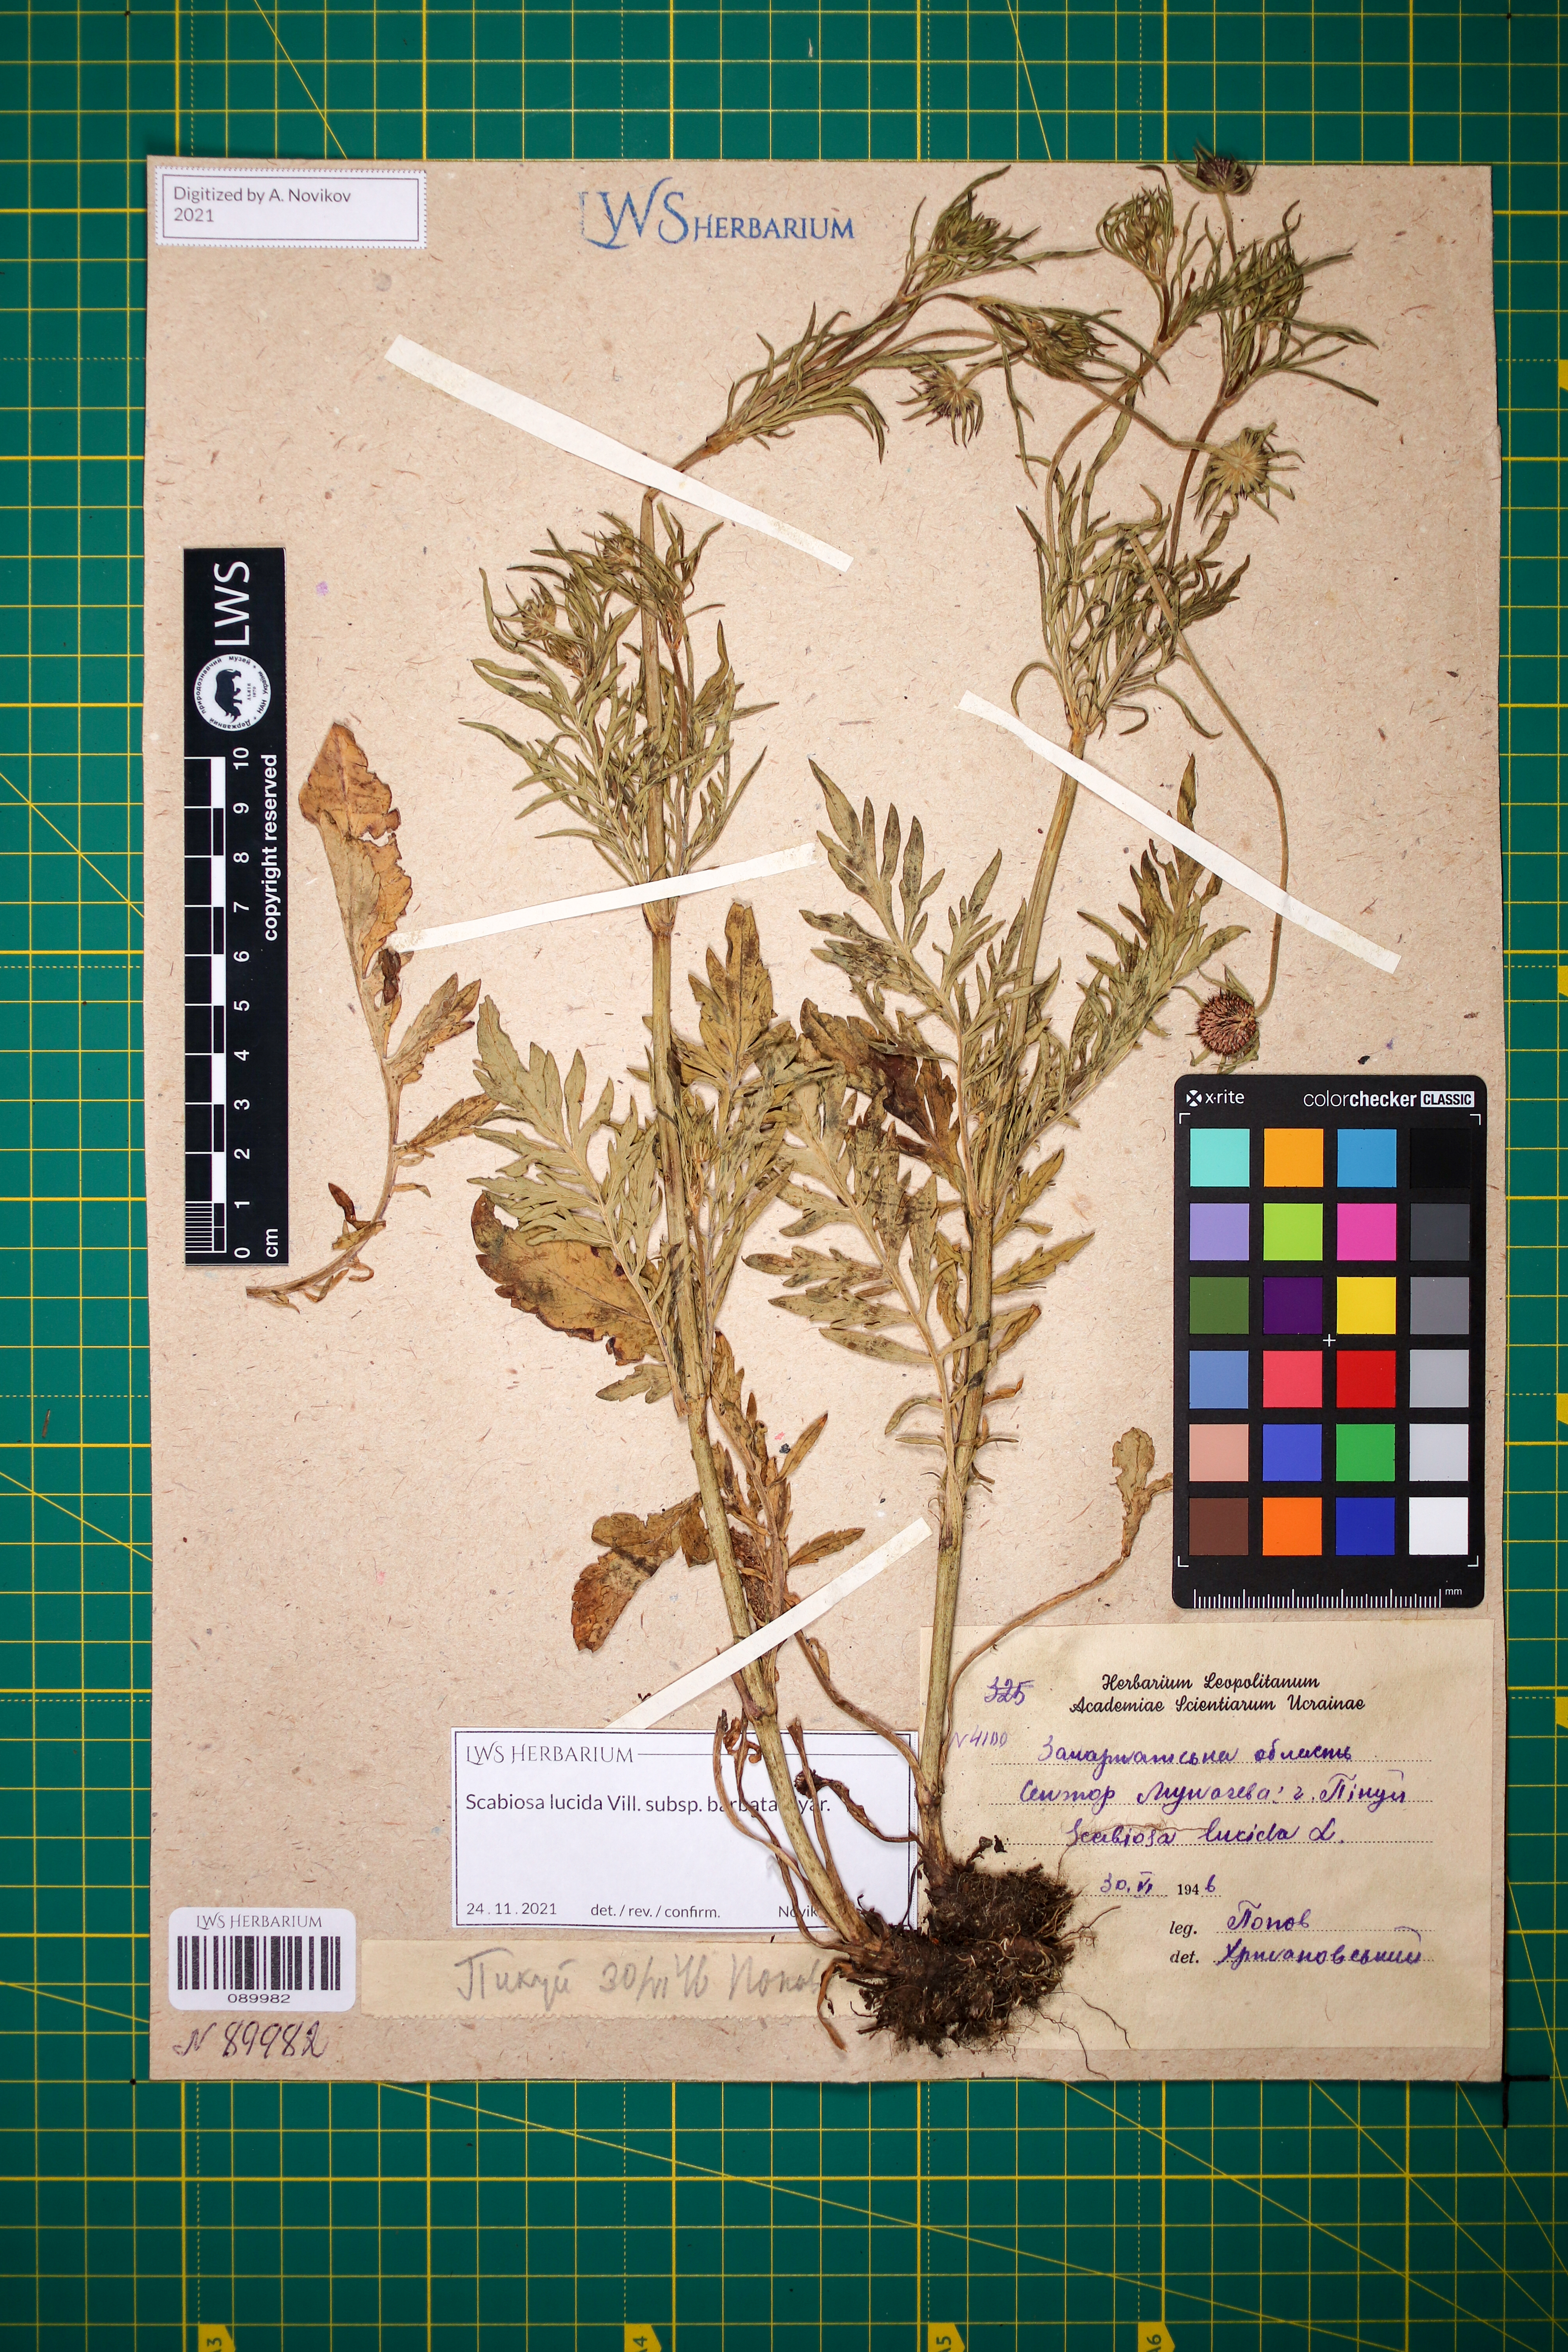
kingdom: Plantae
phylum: Tracheophyta
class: Magnoliopsida
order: Dipsacales
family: Caprifoliaceae
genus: Scabiosa
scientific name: Scabiosa lucida
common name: Shining scabious
